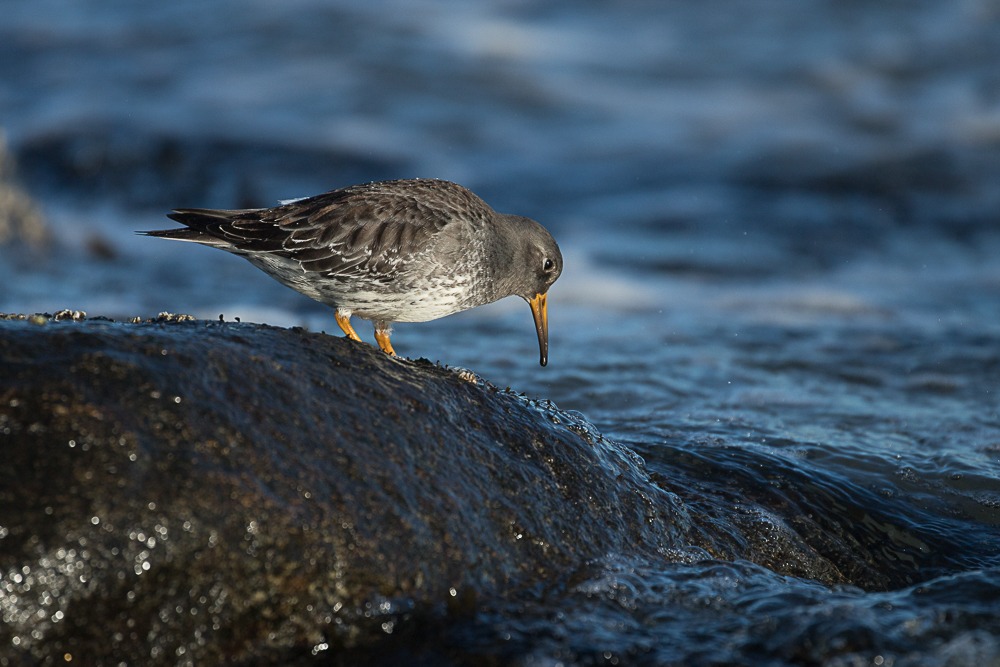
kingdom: Animalia
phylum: Chordata
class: Aves
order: Charadriiformes
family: Scolopacidae
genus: Calidris
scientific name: Calidris maritima
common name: Sortgrå ryle
